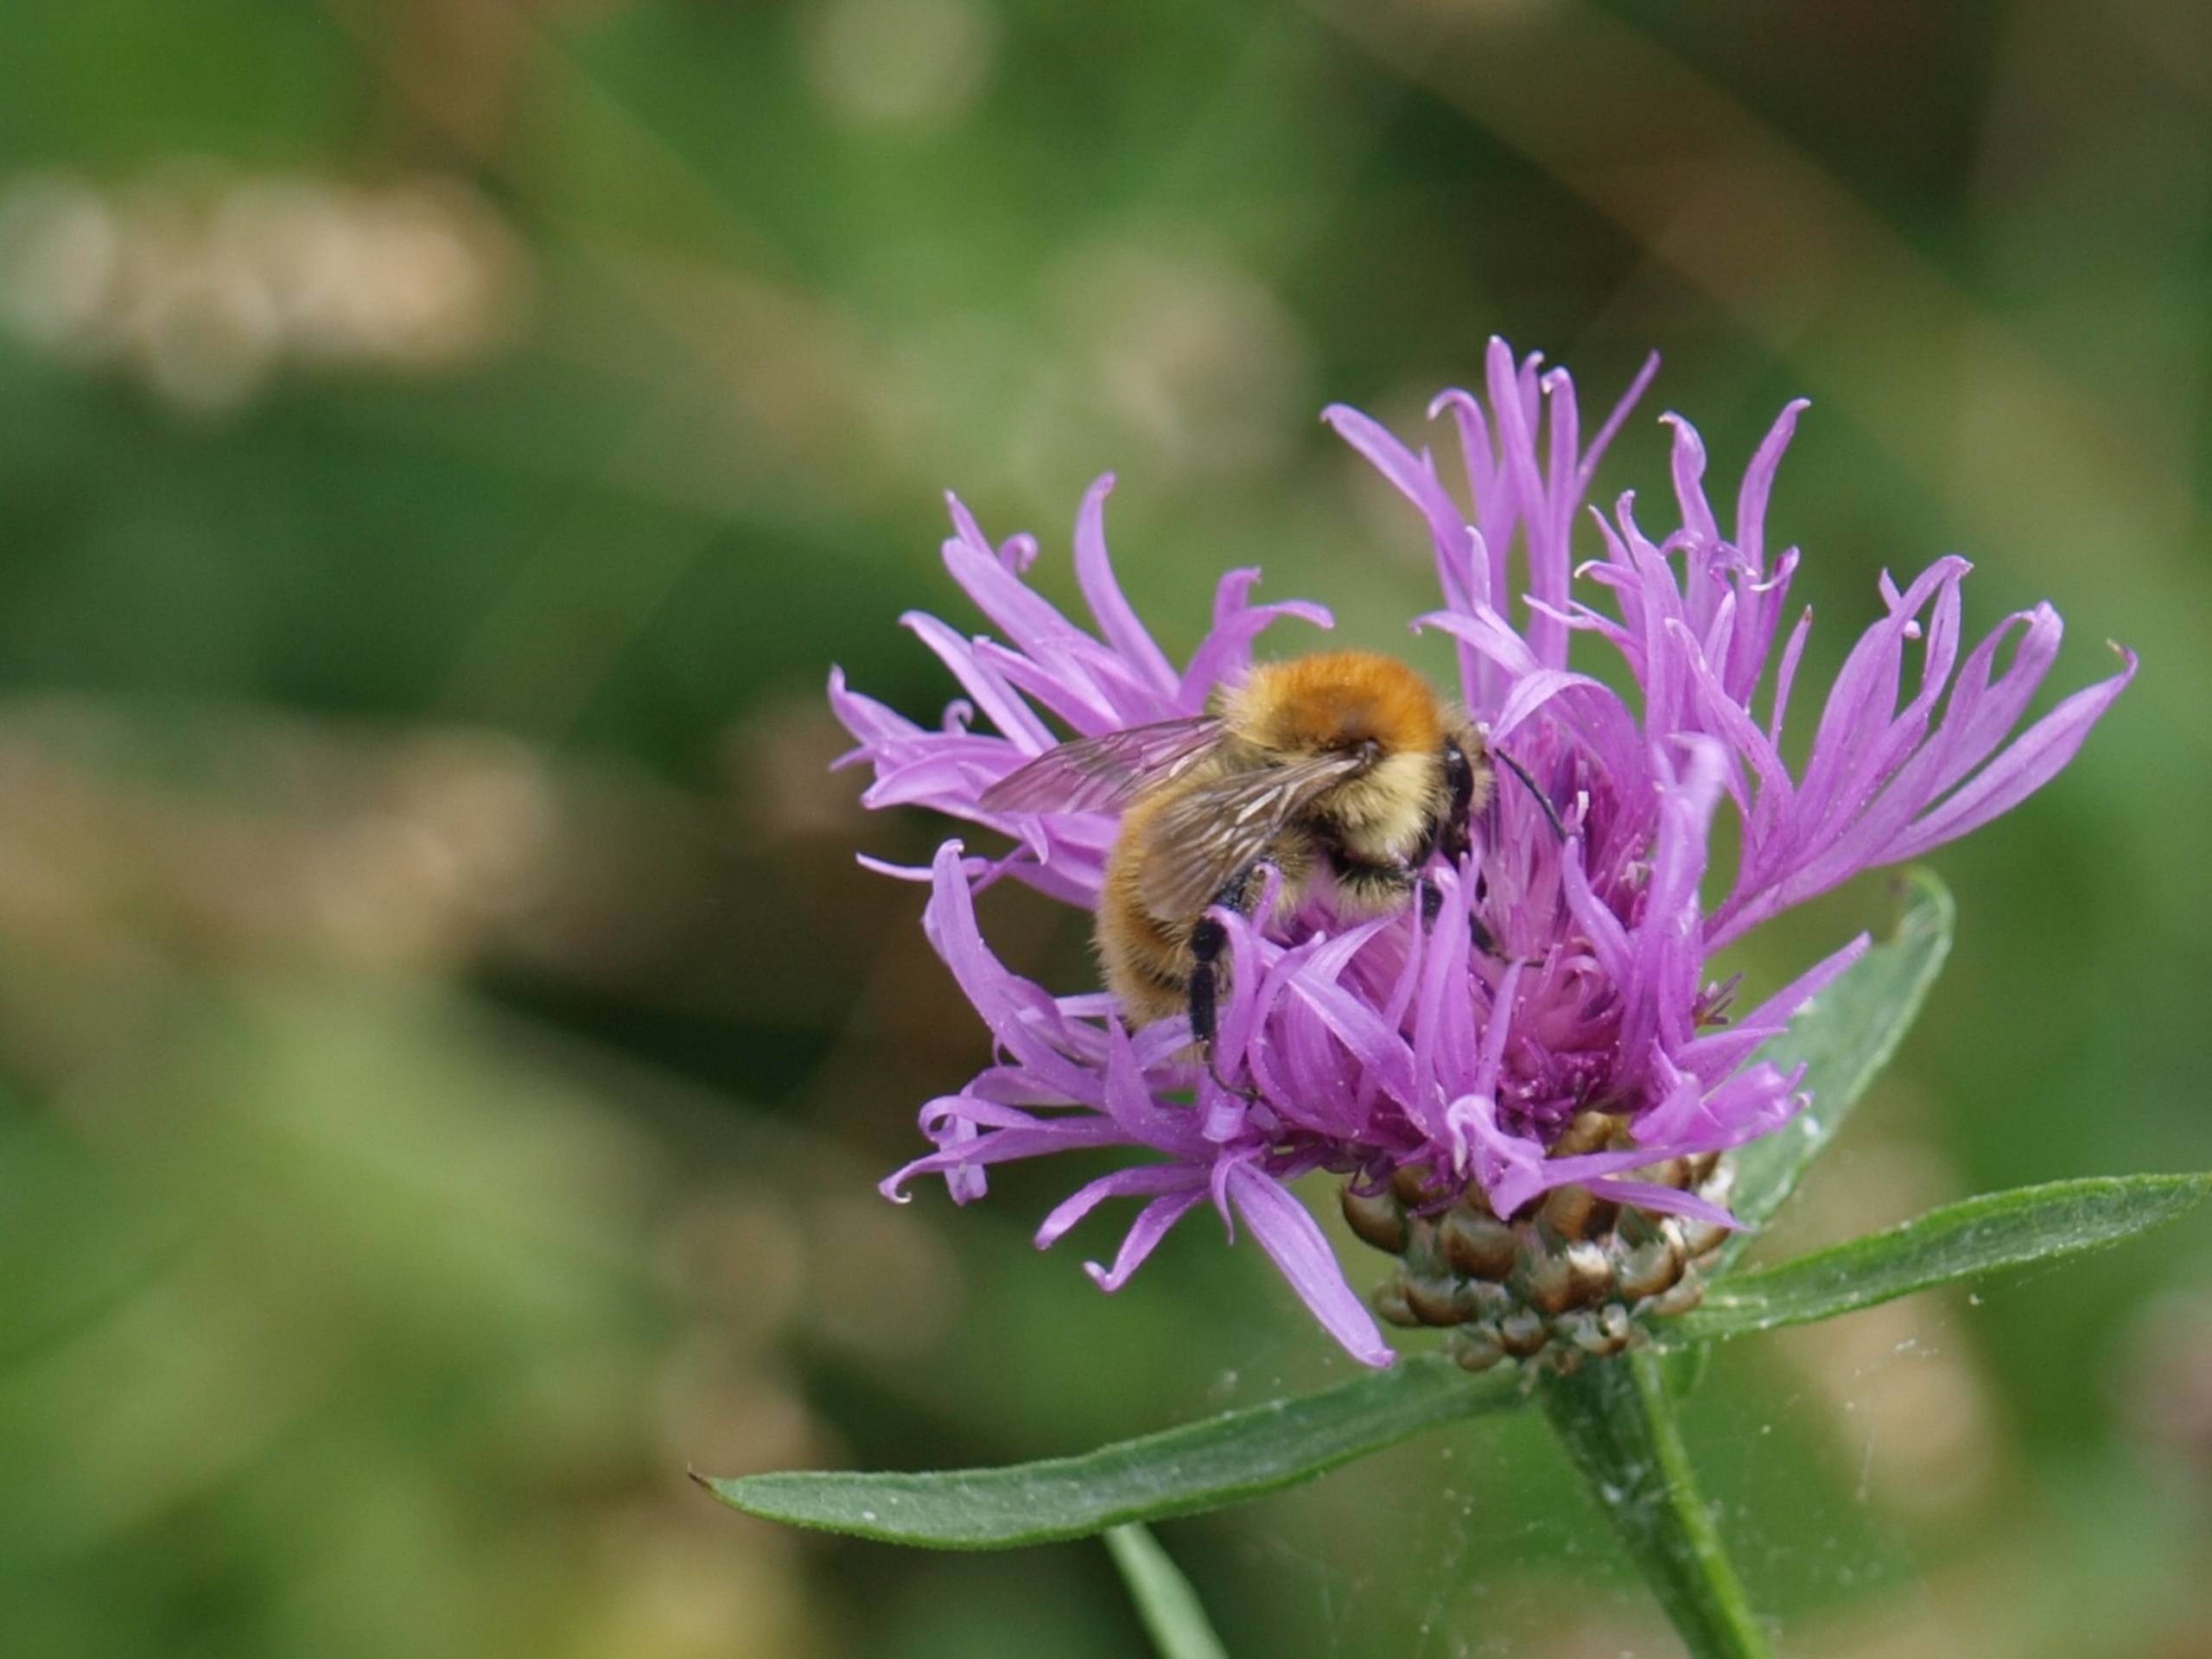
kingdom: Animalia
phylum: Arthropoda
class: Insecta
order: Hymenoptera
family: Apidae
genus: Bombus
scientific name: Bombus muscorum
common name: Moshumle
